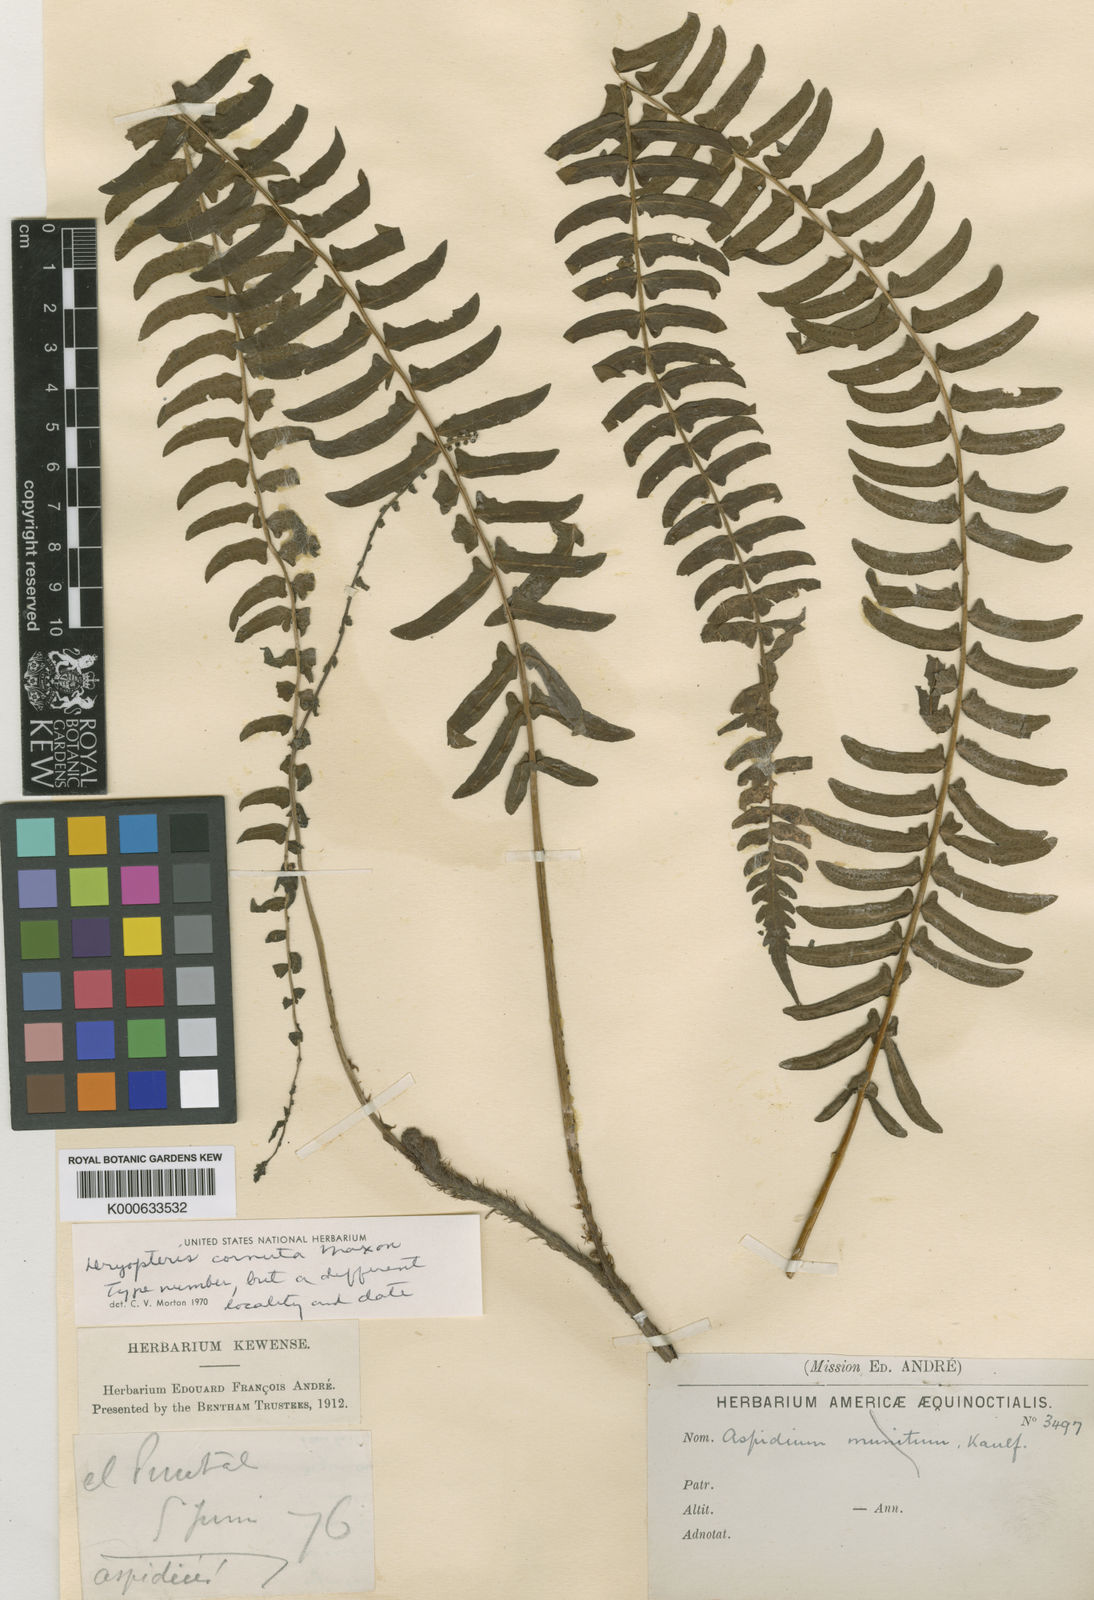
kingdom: Plantae
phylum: Tracheophyta
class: Polypodiopsida
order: Polypodiales
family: Thelypteridaceae
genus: Amauropelta
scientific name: Amauropelta cornuta
